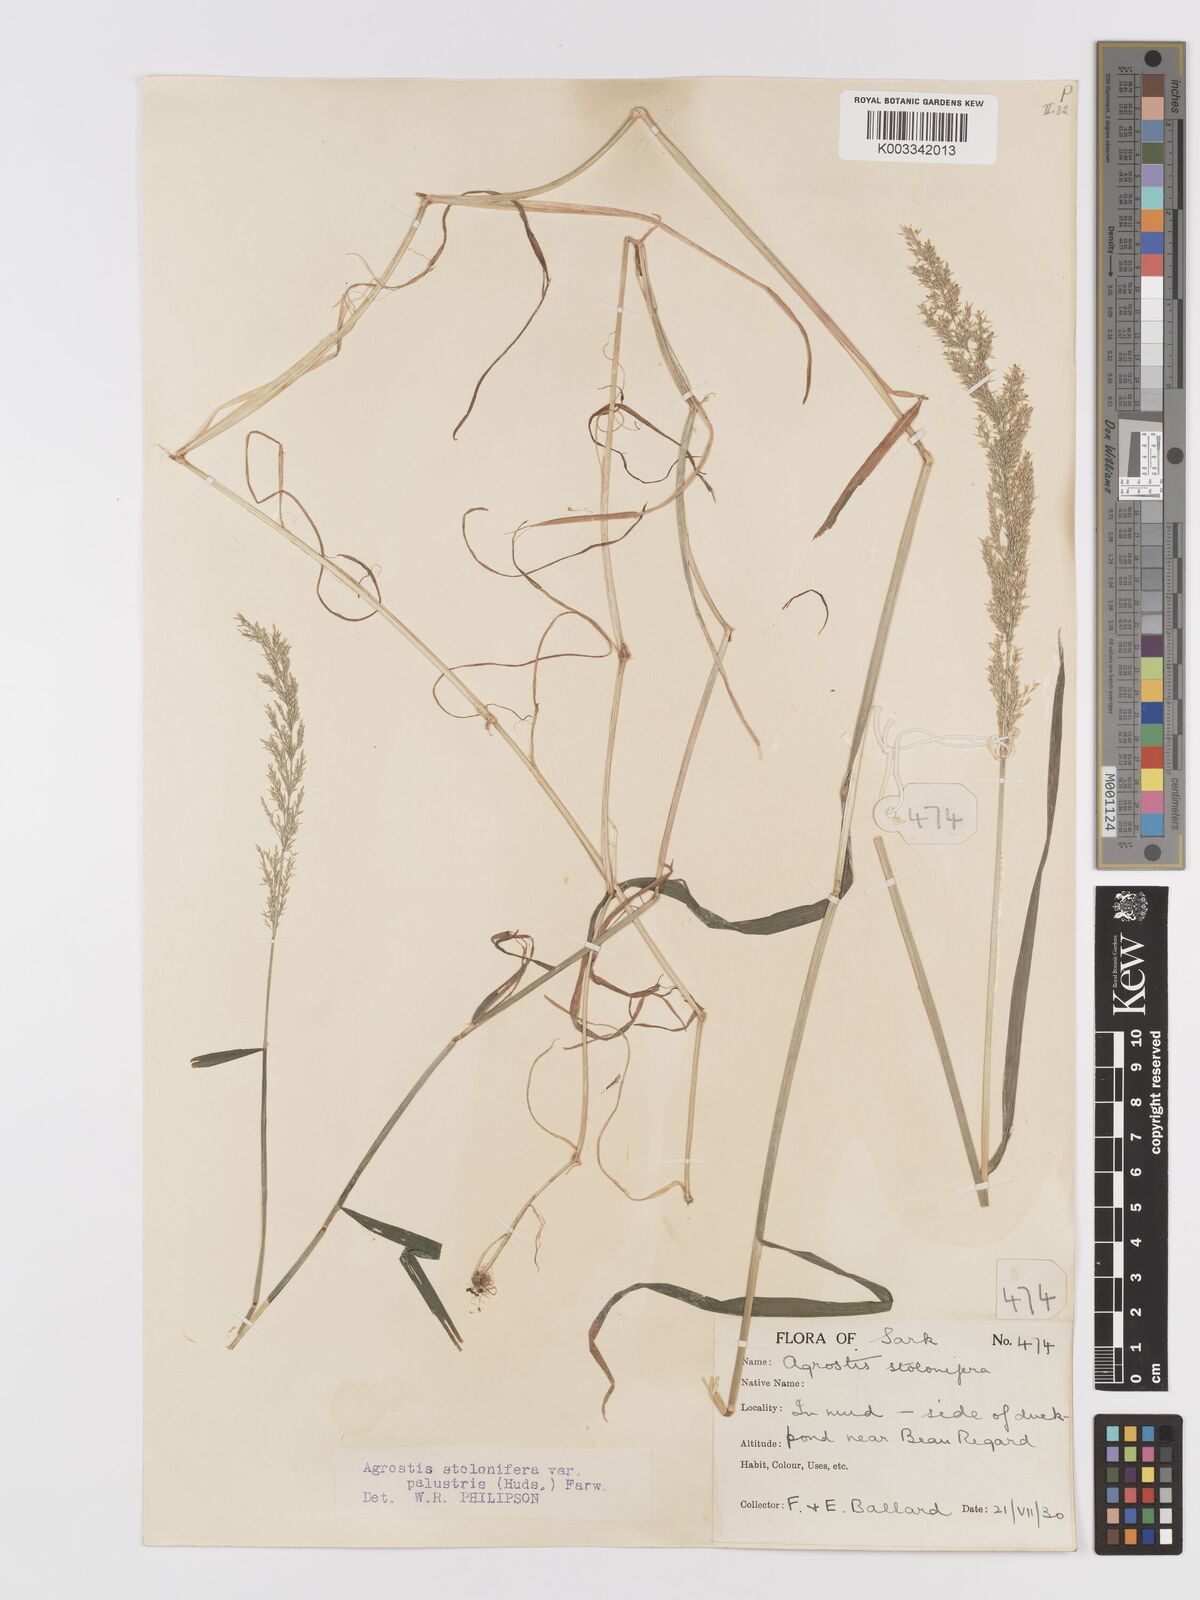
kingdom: Plantae
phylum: Tracheophyta
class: Liliopsida
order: Poales
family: Poaceae
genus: Agrostis
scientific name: Agrostis stolonifera
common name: Creeping bentgrass
